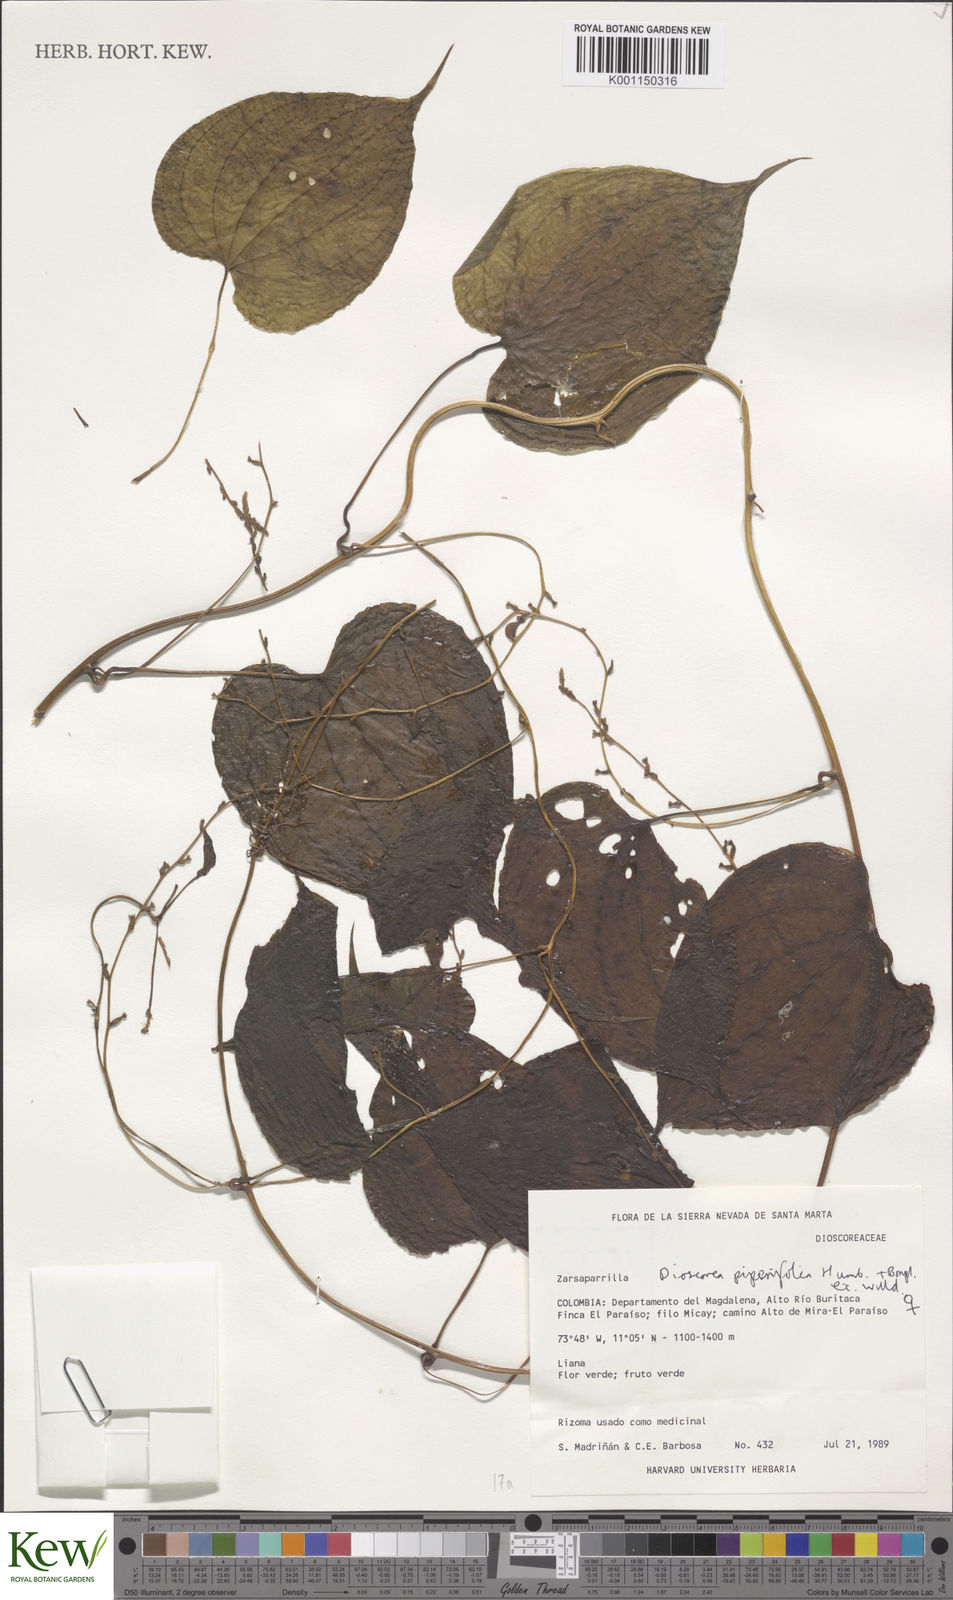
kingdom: Plantae
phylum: Tracheophyta
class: Liliopsida
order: Dioscoreales
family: Dioscoreaceae
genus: Dioscorea
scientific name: Dioscorea piperifolia
